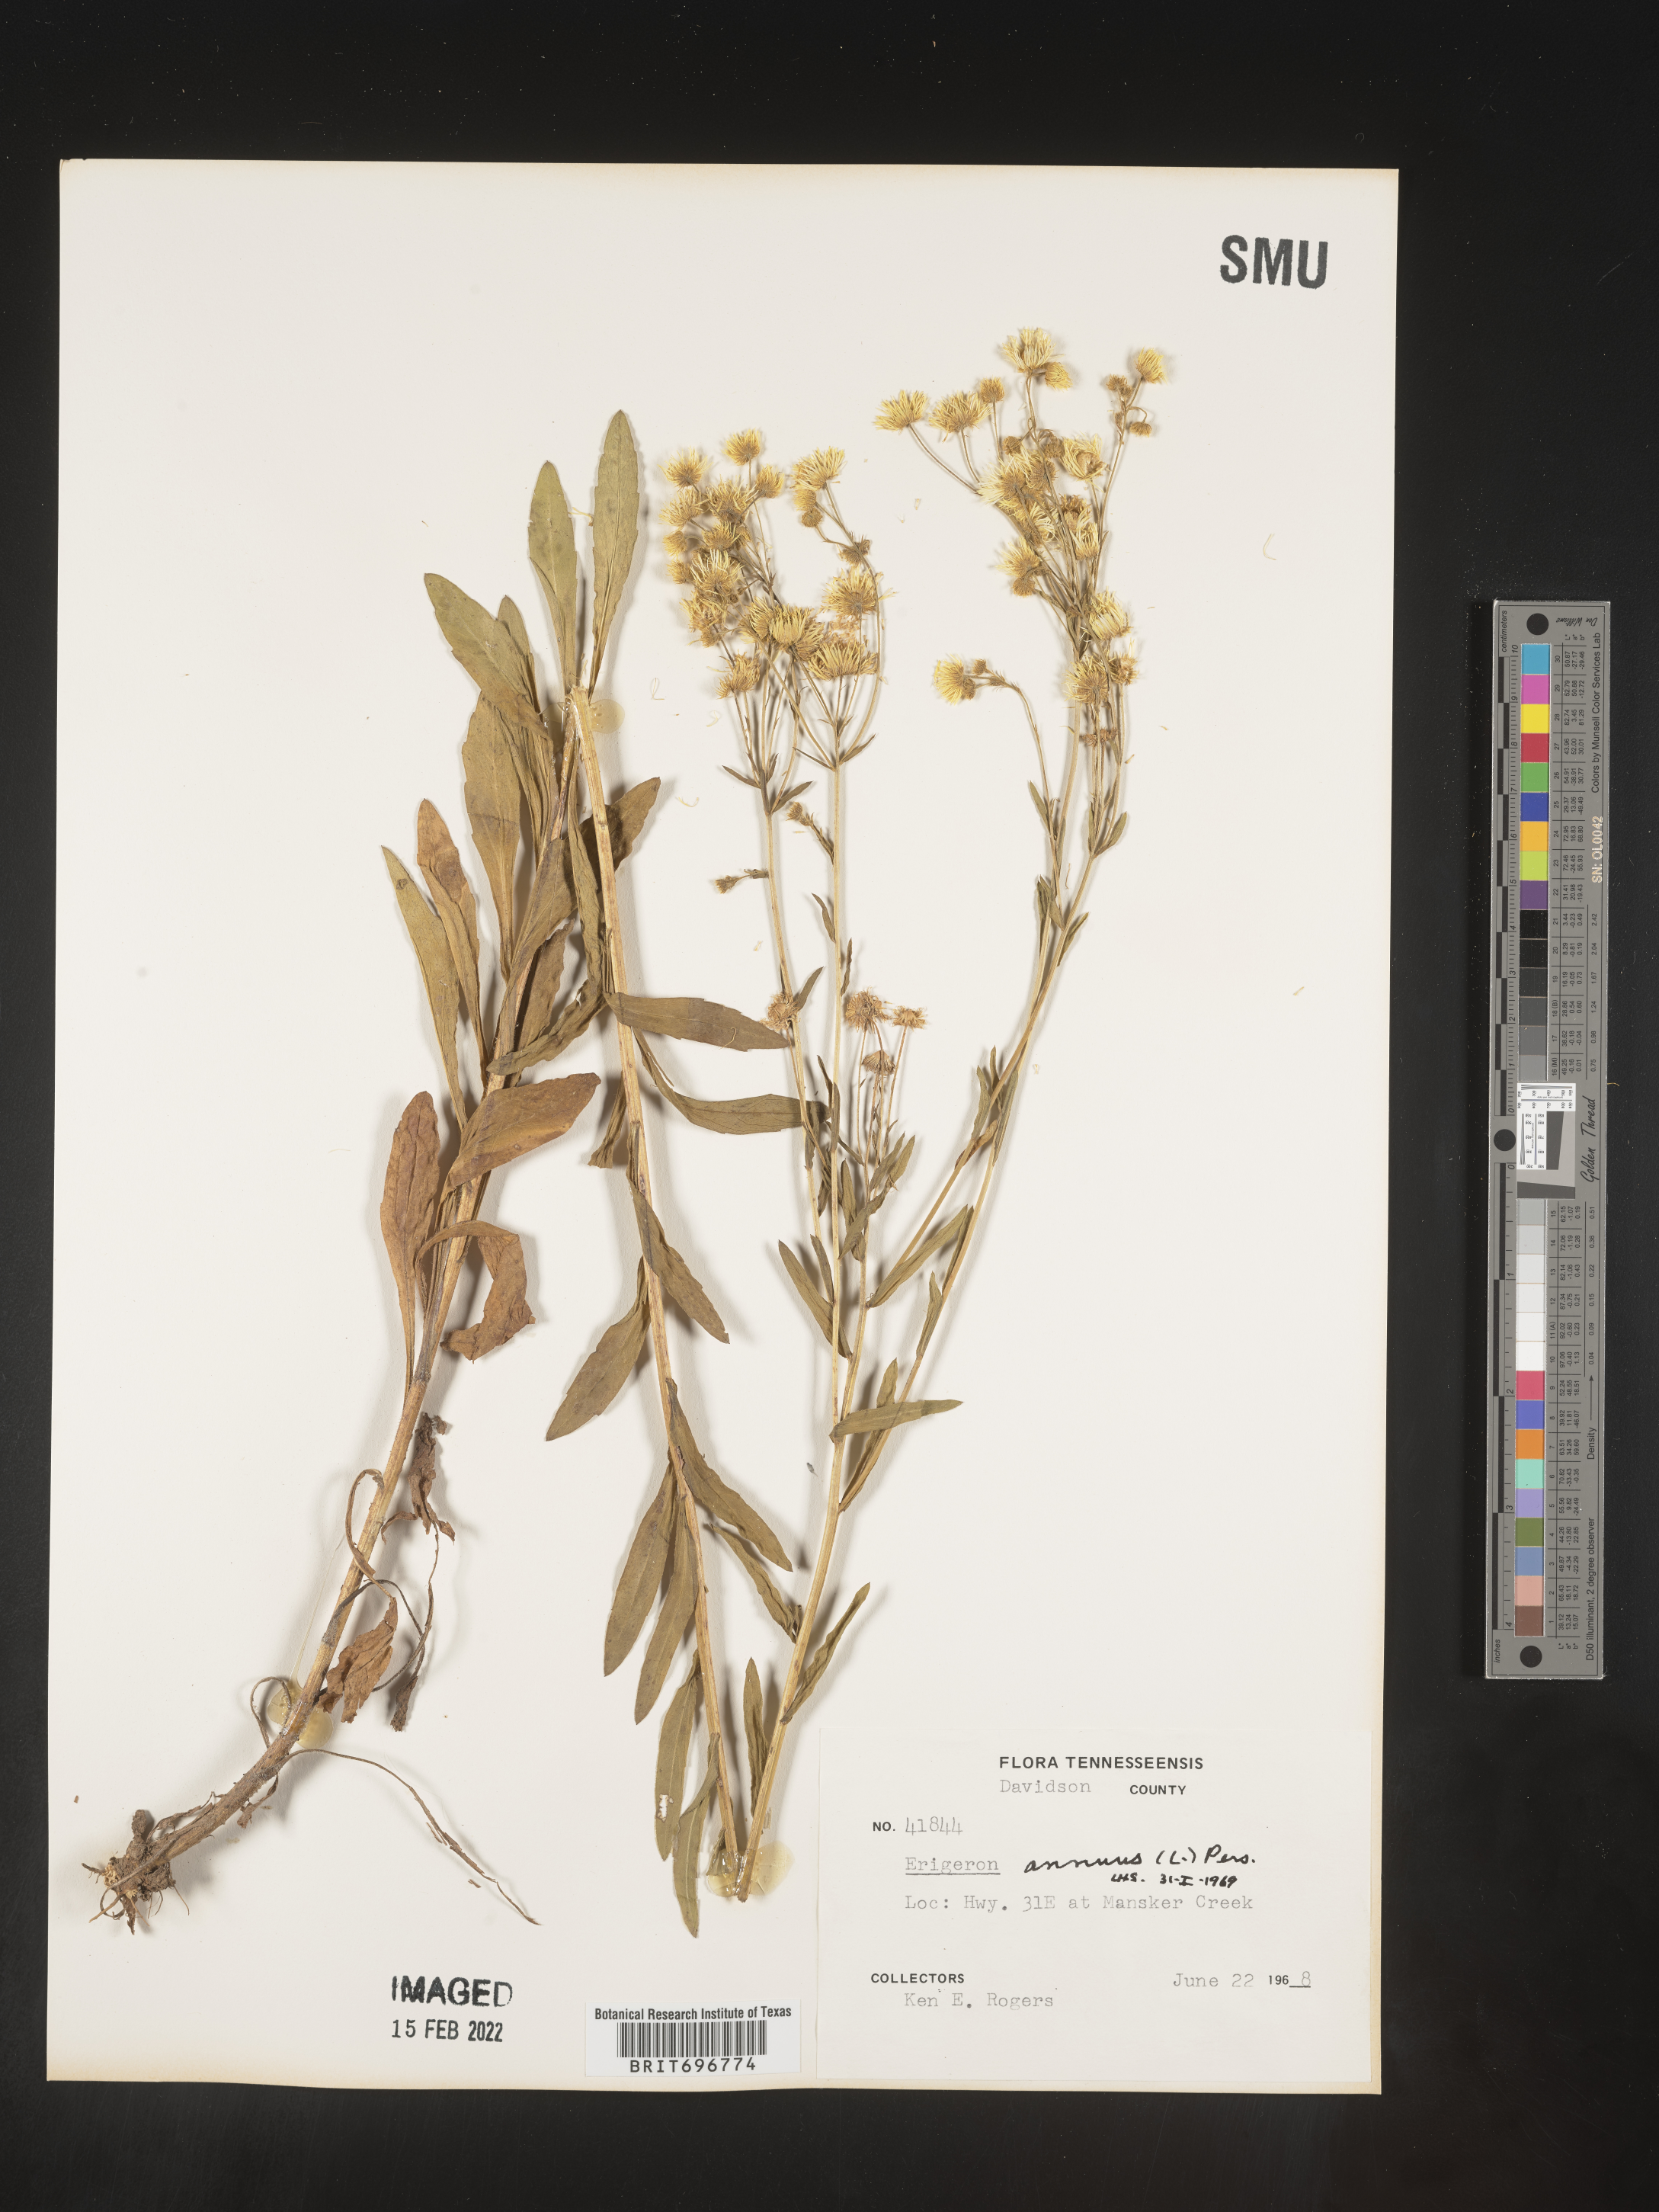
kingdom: Plantae
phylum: Tracheophyta
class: Magnoliopsida
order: Asterales
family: Asteraceae
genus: Erigeron
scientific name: Erigeron annuus
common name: Tall fleabane
